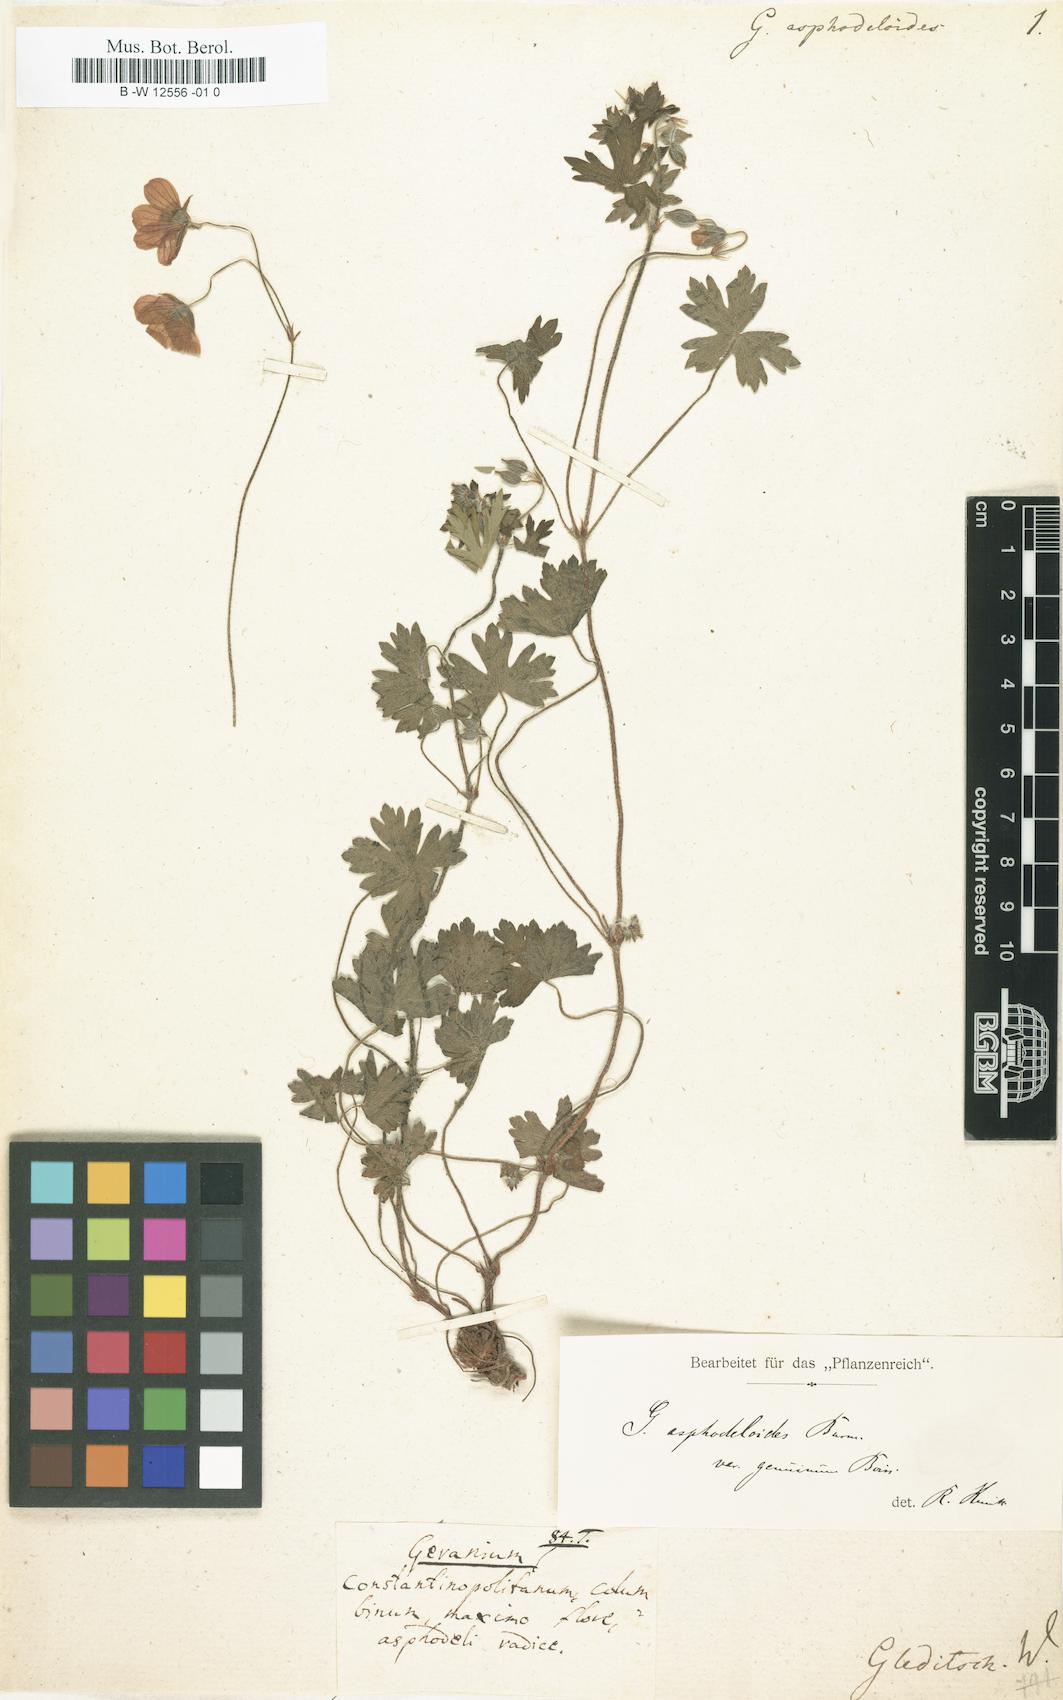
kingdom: Plantae
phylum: Tracheophyta
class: Magnoliopsida
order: Geraniales
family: Geraniaceae
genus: Geranium
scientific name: Geranium asphodeloides
